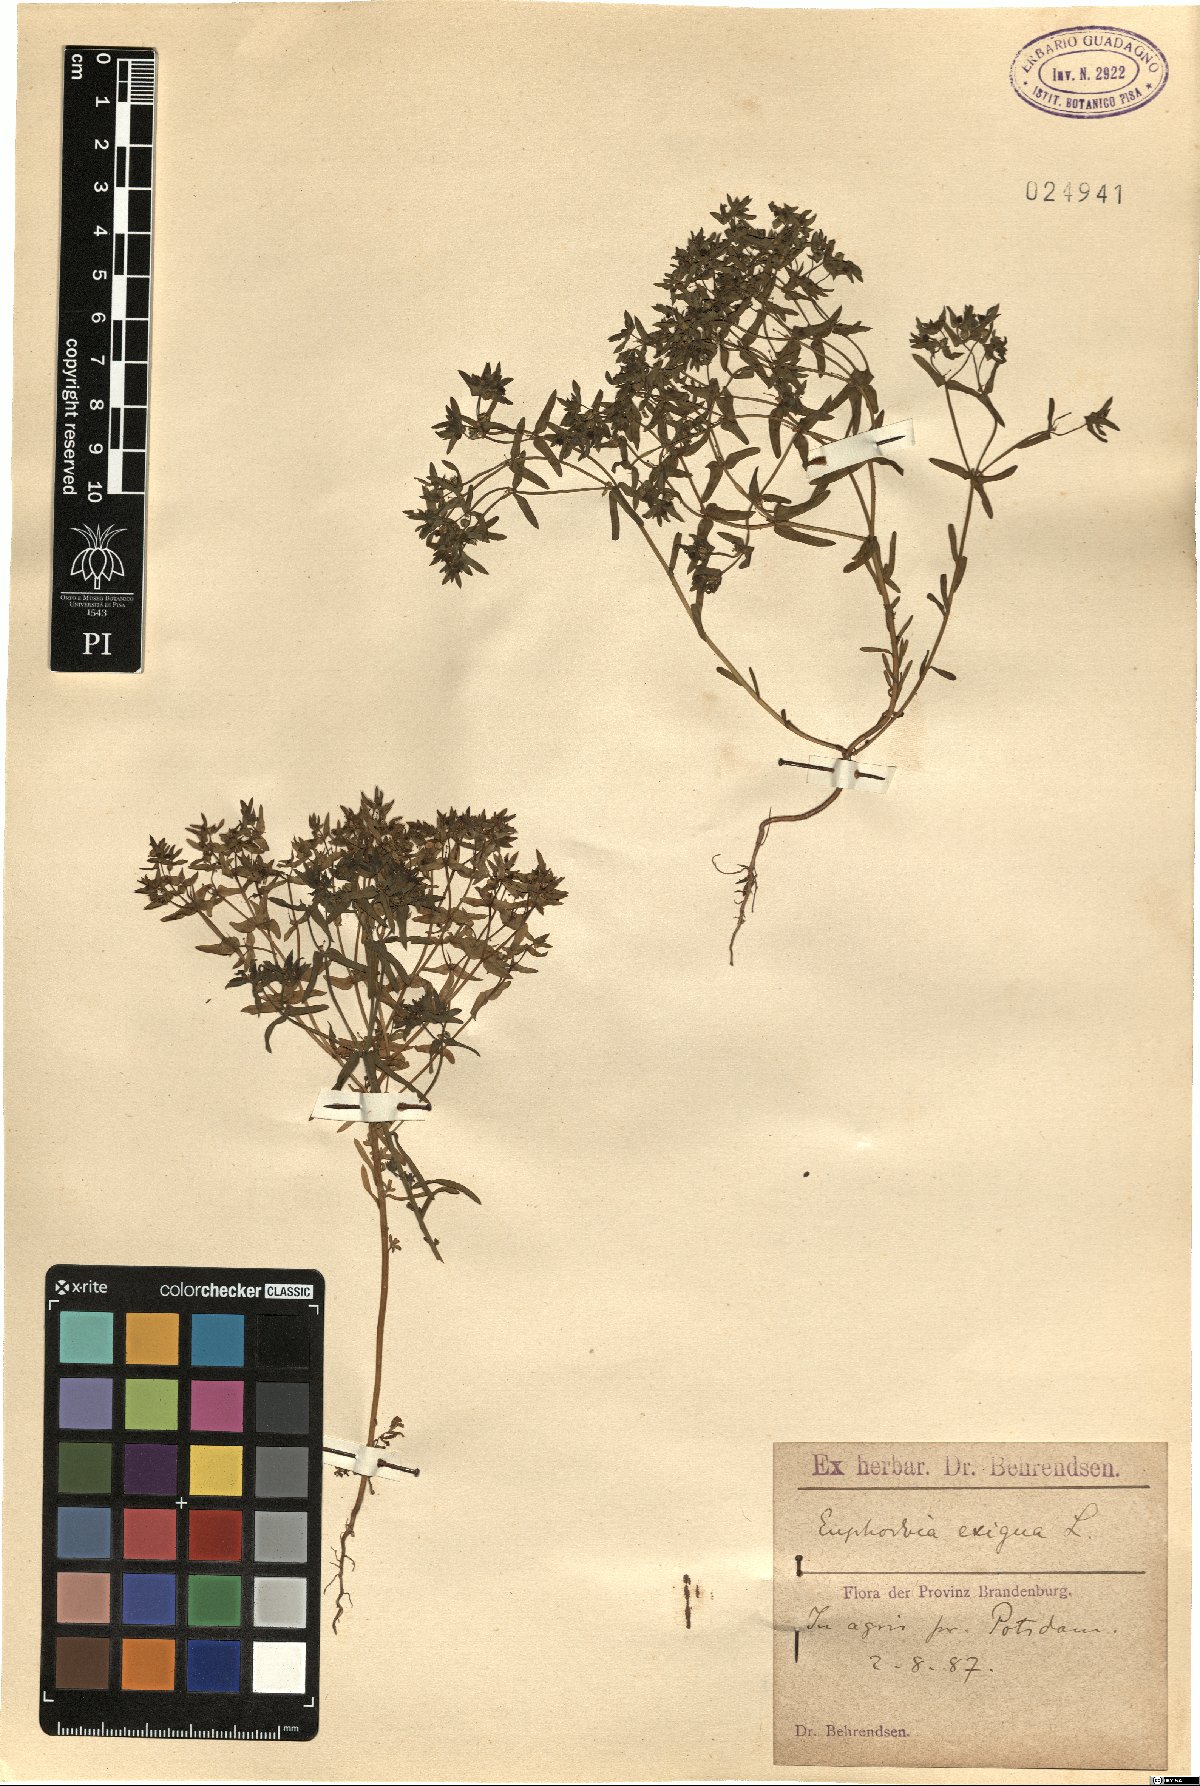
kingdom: Plantae
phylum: Tracheophyta
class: Magnoliopsida
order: Malpighiales
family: Euphorbiaceae
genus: Euphorbia
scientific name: Euphorbia exigua
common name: Dwarf spurge
